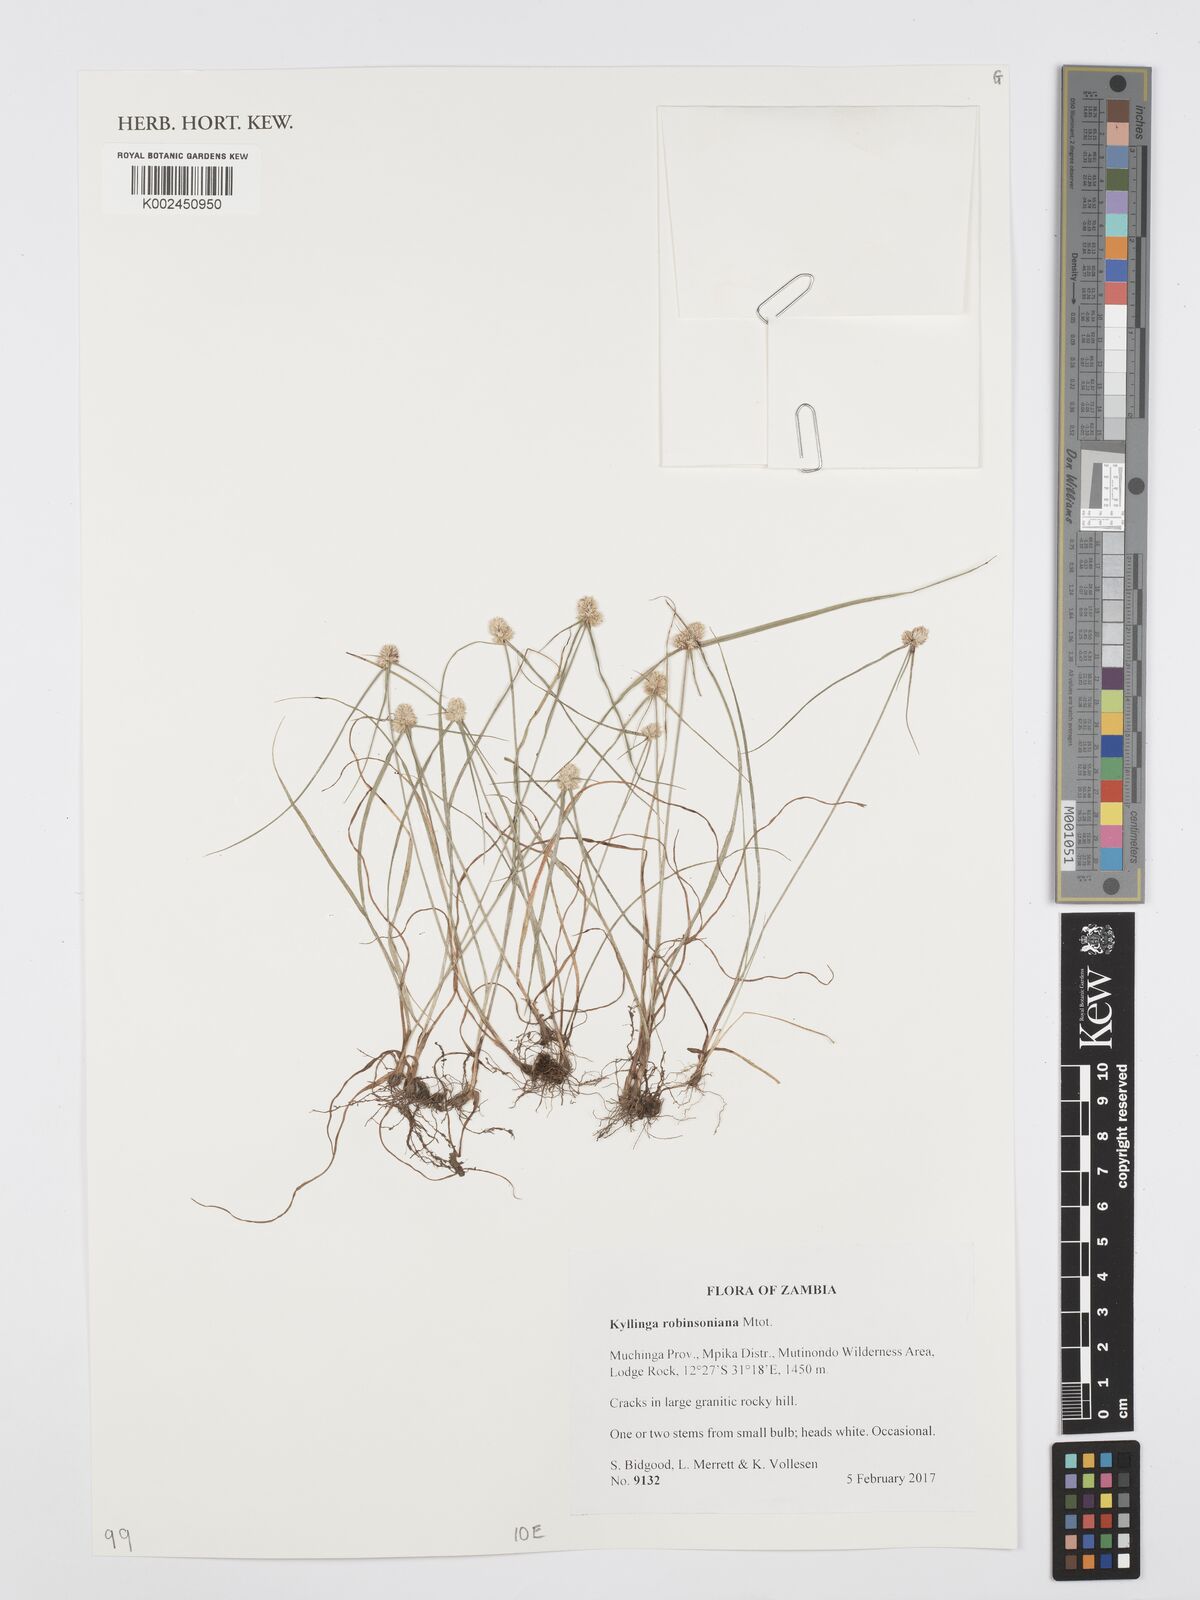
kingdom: Plantae
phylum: Tracheophyta
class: Liliopsida
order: Poales
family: Cyperaceae
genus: Cyperus
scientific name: Cyperus robinsonianus
